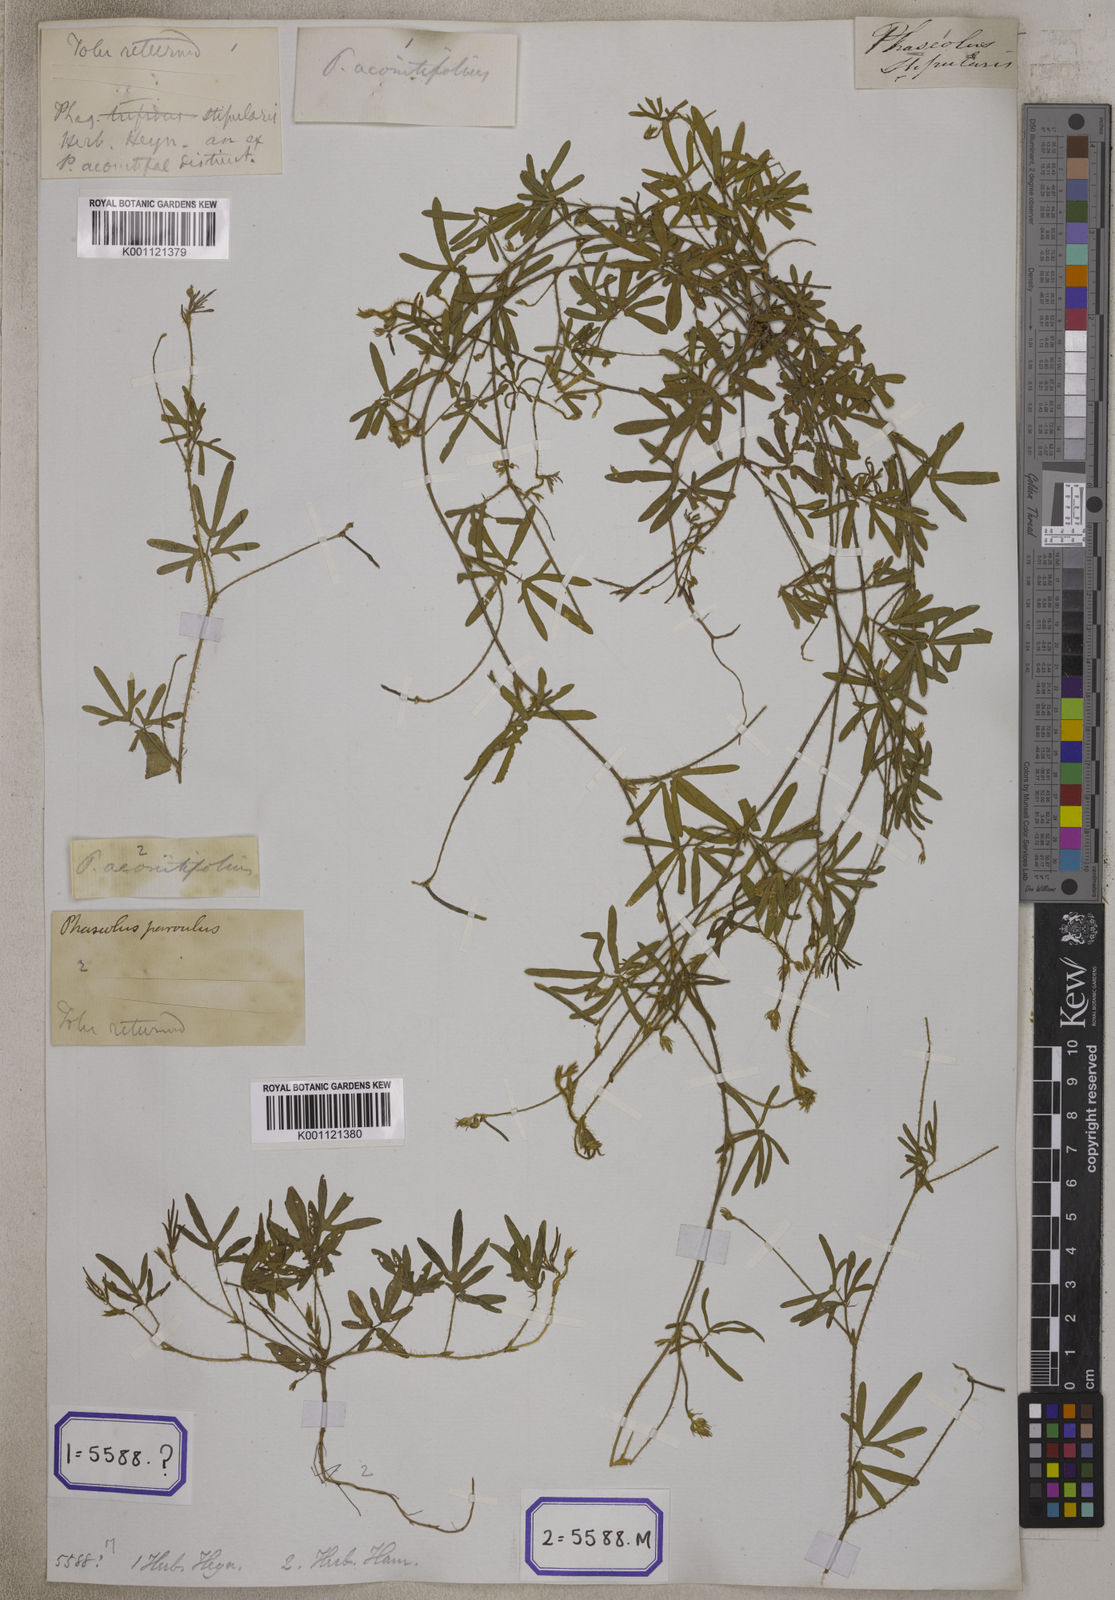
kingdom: Plantae
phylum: Tracheophyta
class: Magnoliopsida
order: Fabales
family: Fabaceae
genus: Phaseolus
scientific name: Phaseolus
